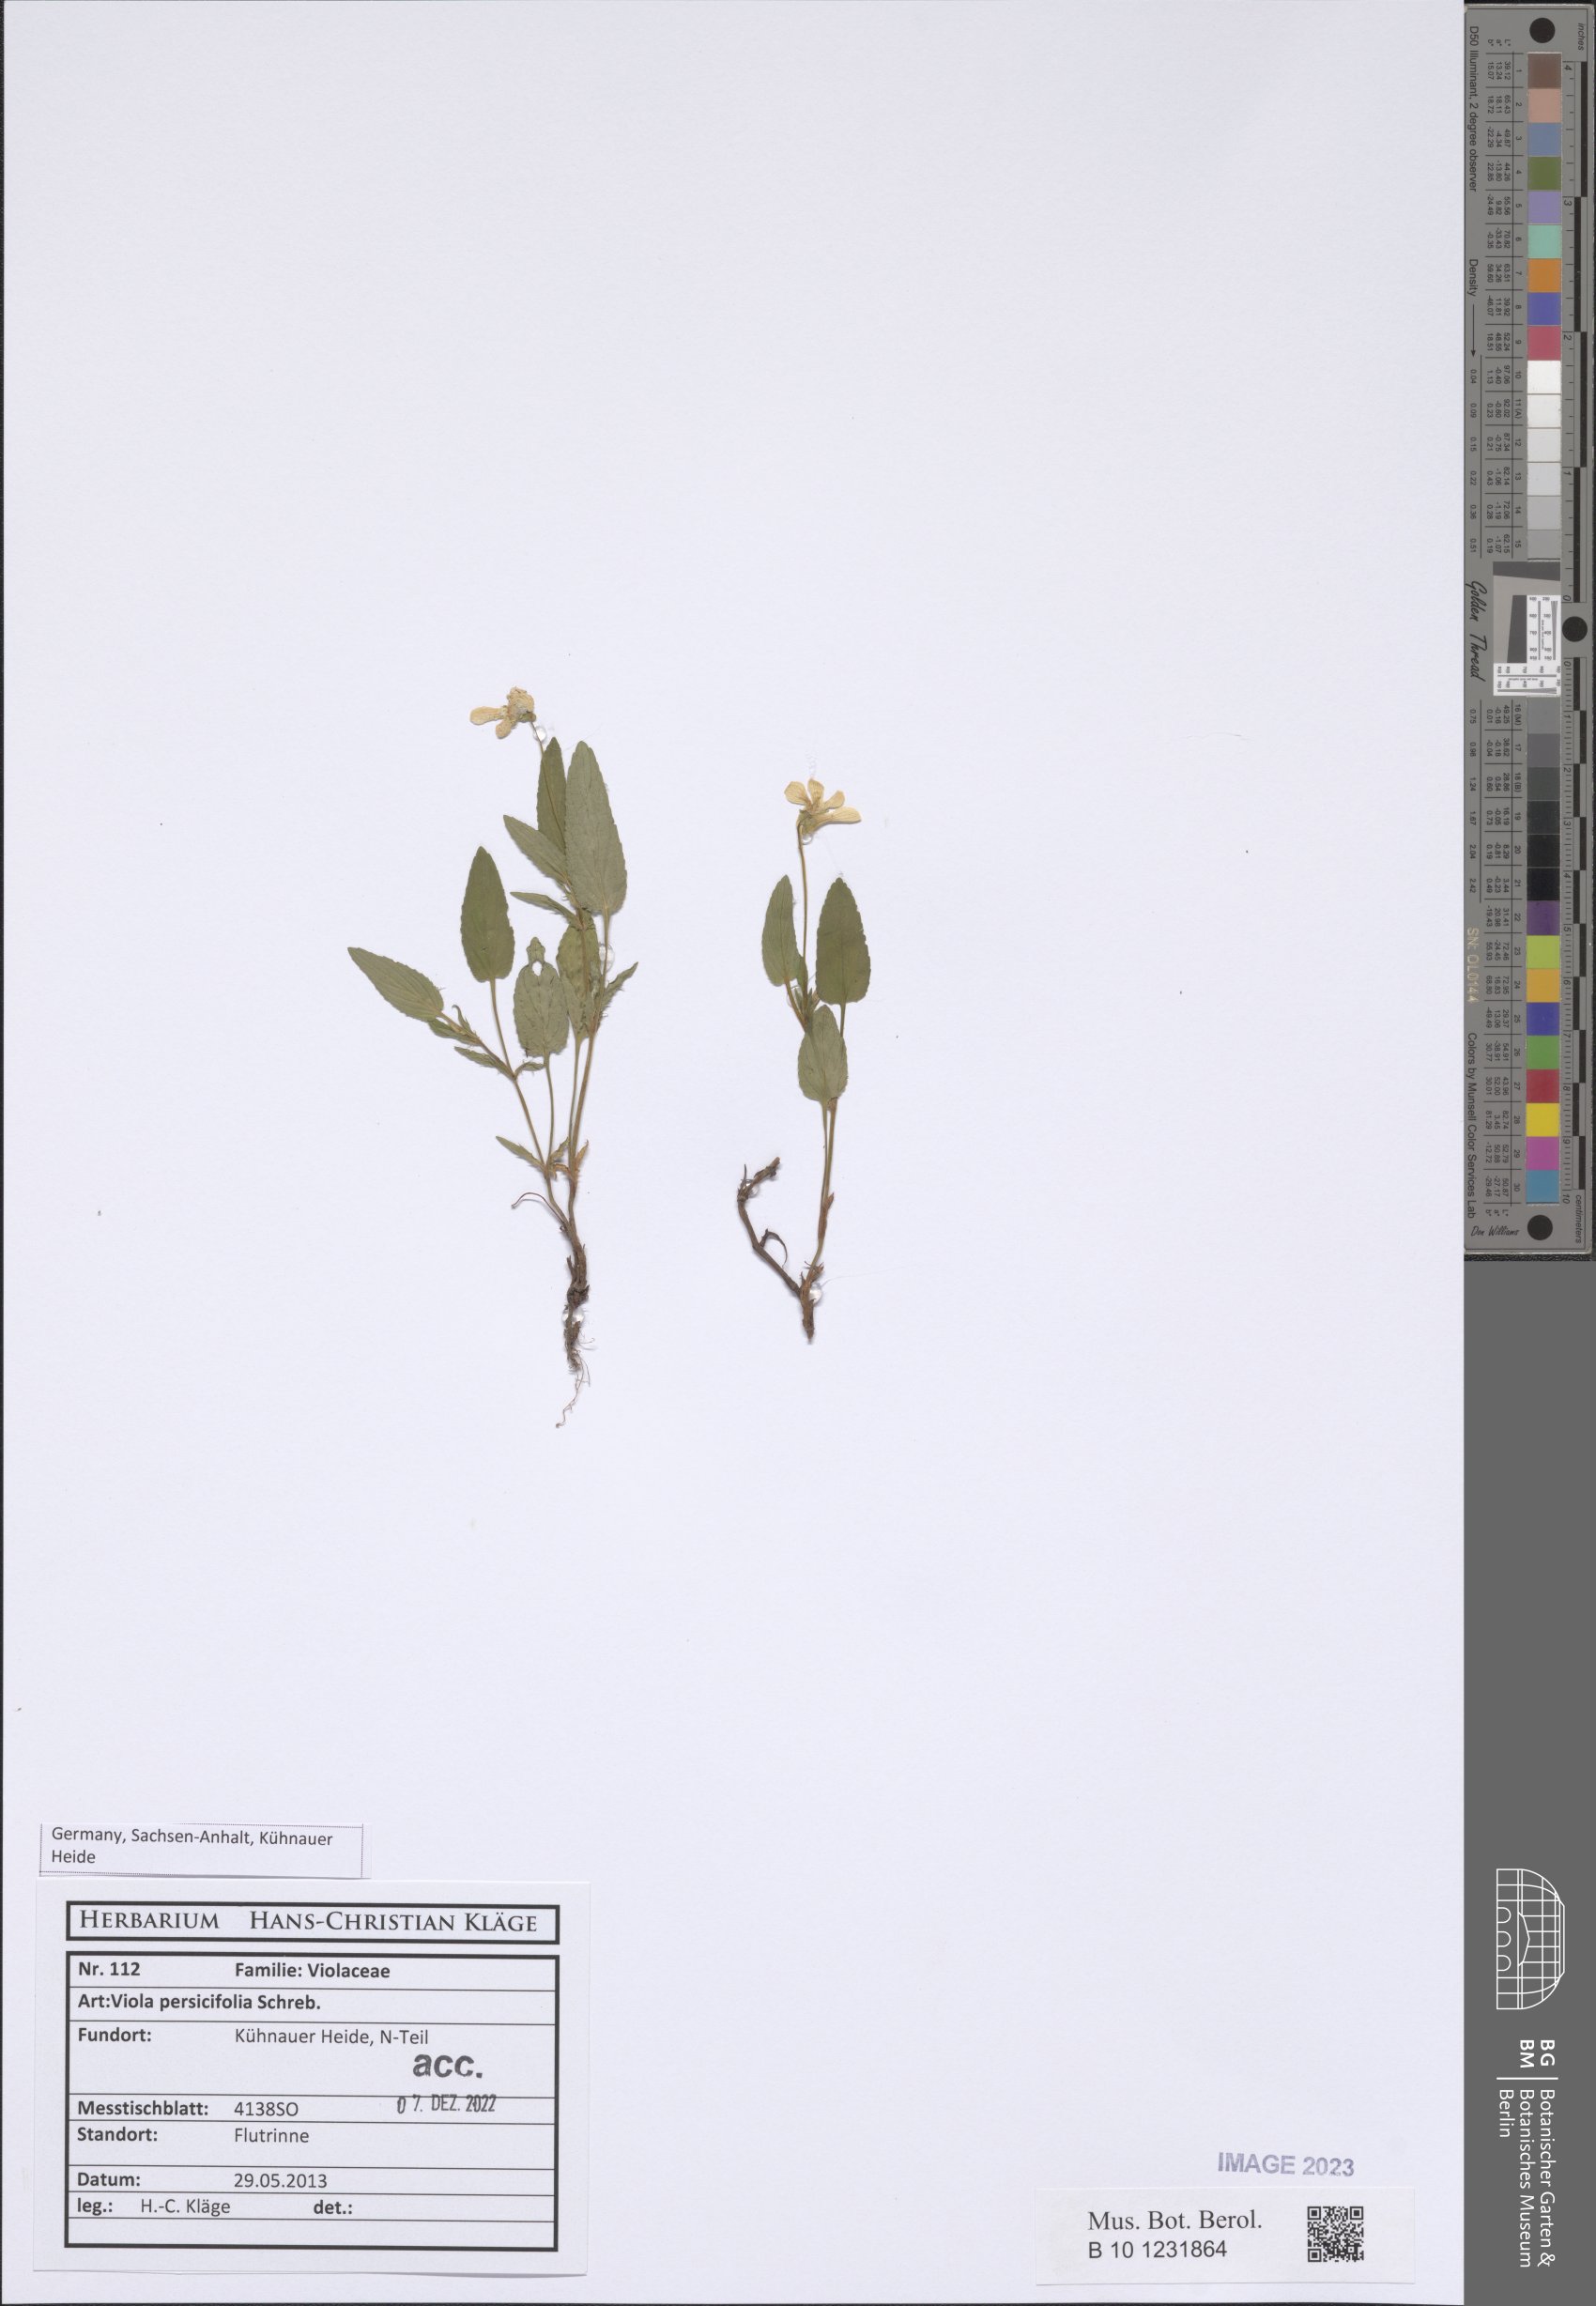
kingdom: Plantae
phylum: Tracheophyta
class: Magnoliopsida
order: Malpighiales
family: Violaceae
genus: Viola
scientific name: Viola elatior
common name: Tall violet
